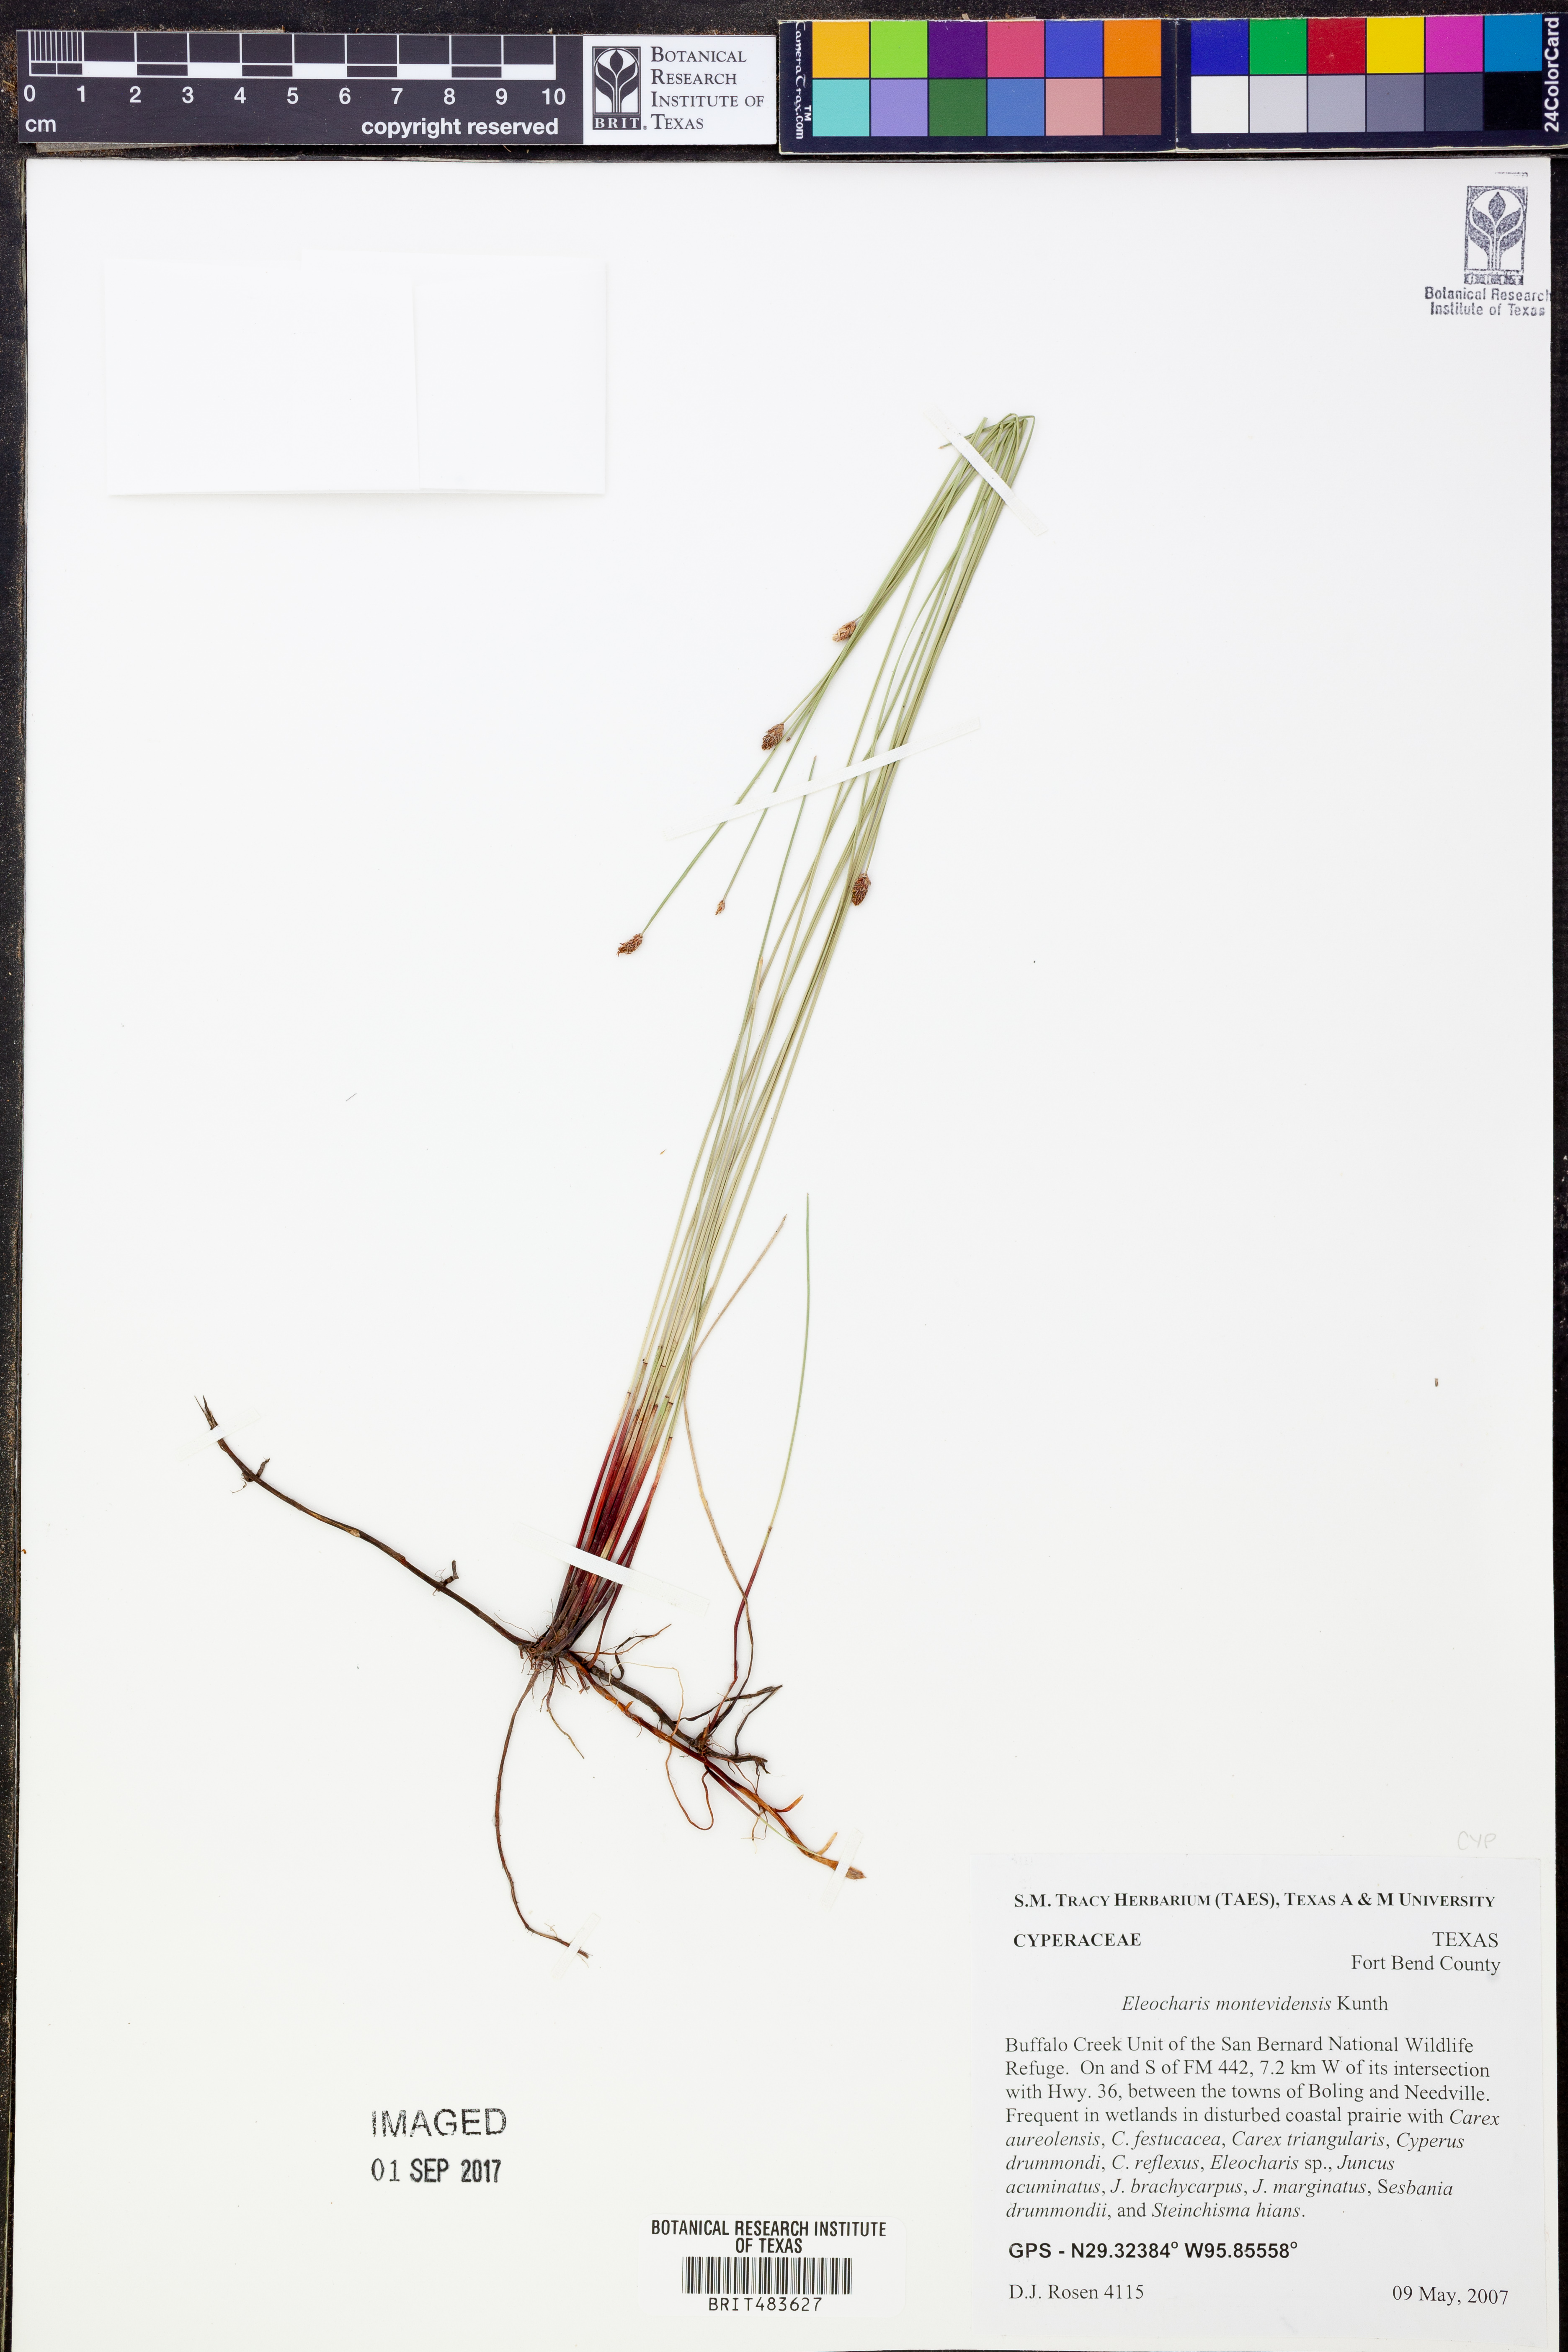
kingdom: Plantae
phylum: Tracheophyta
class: Liliopsida
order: Poales
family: Cyperaceae
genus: Eleocharis
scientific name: Eleocharis montevidensis
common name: Sand spike-rush
